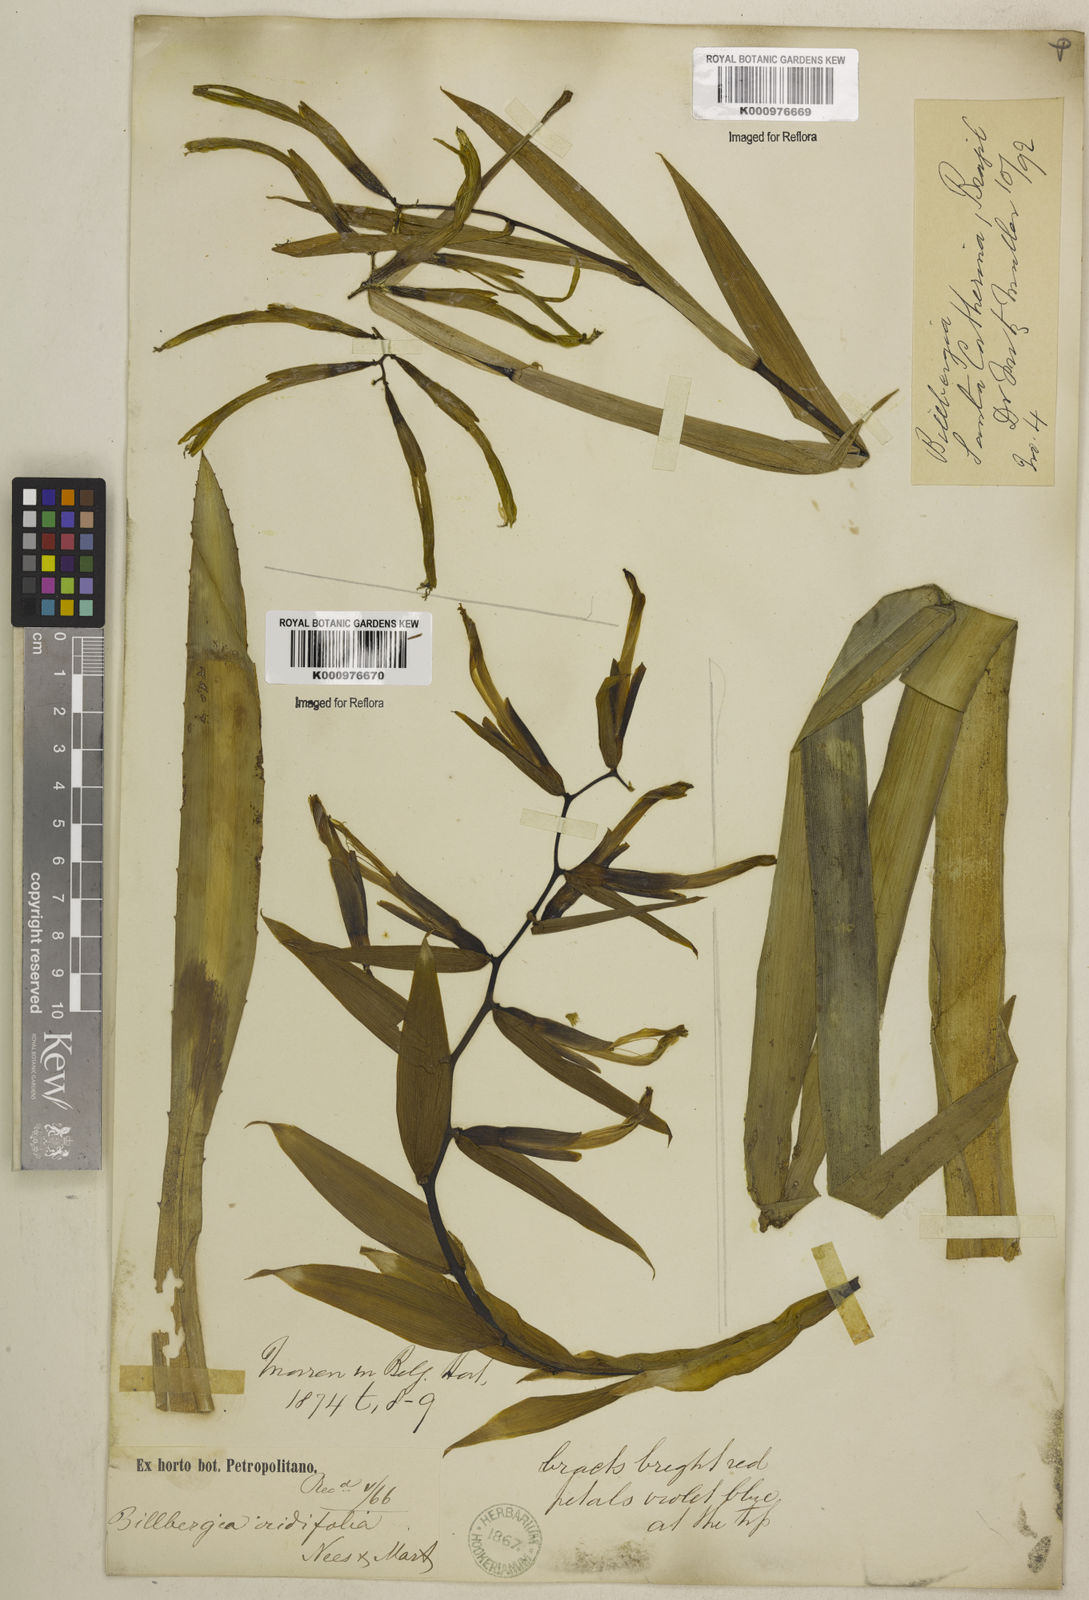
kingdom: Plantae
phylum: Tracheophyta
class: Liliopsida
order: Poales
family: Bromeliaceae
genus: Billbergia
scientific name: Billbergia iridifolia
